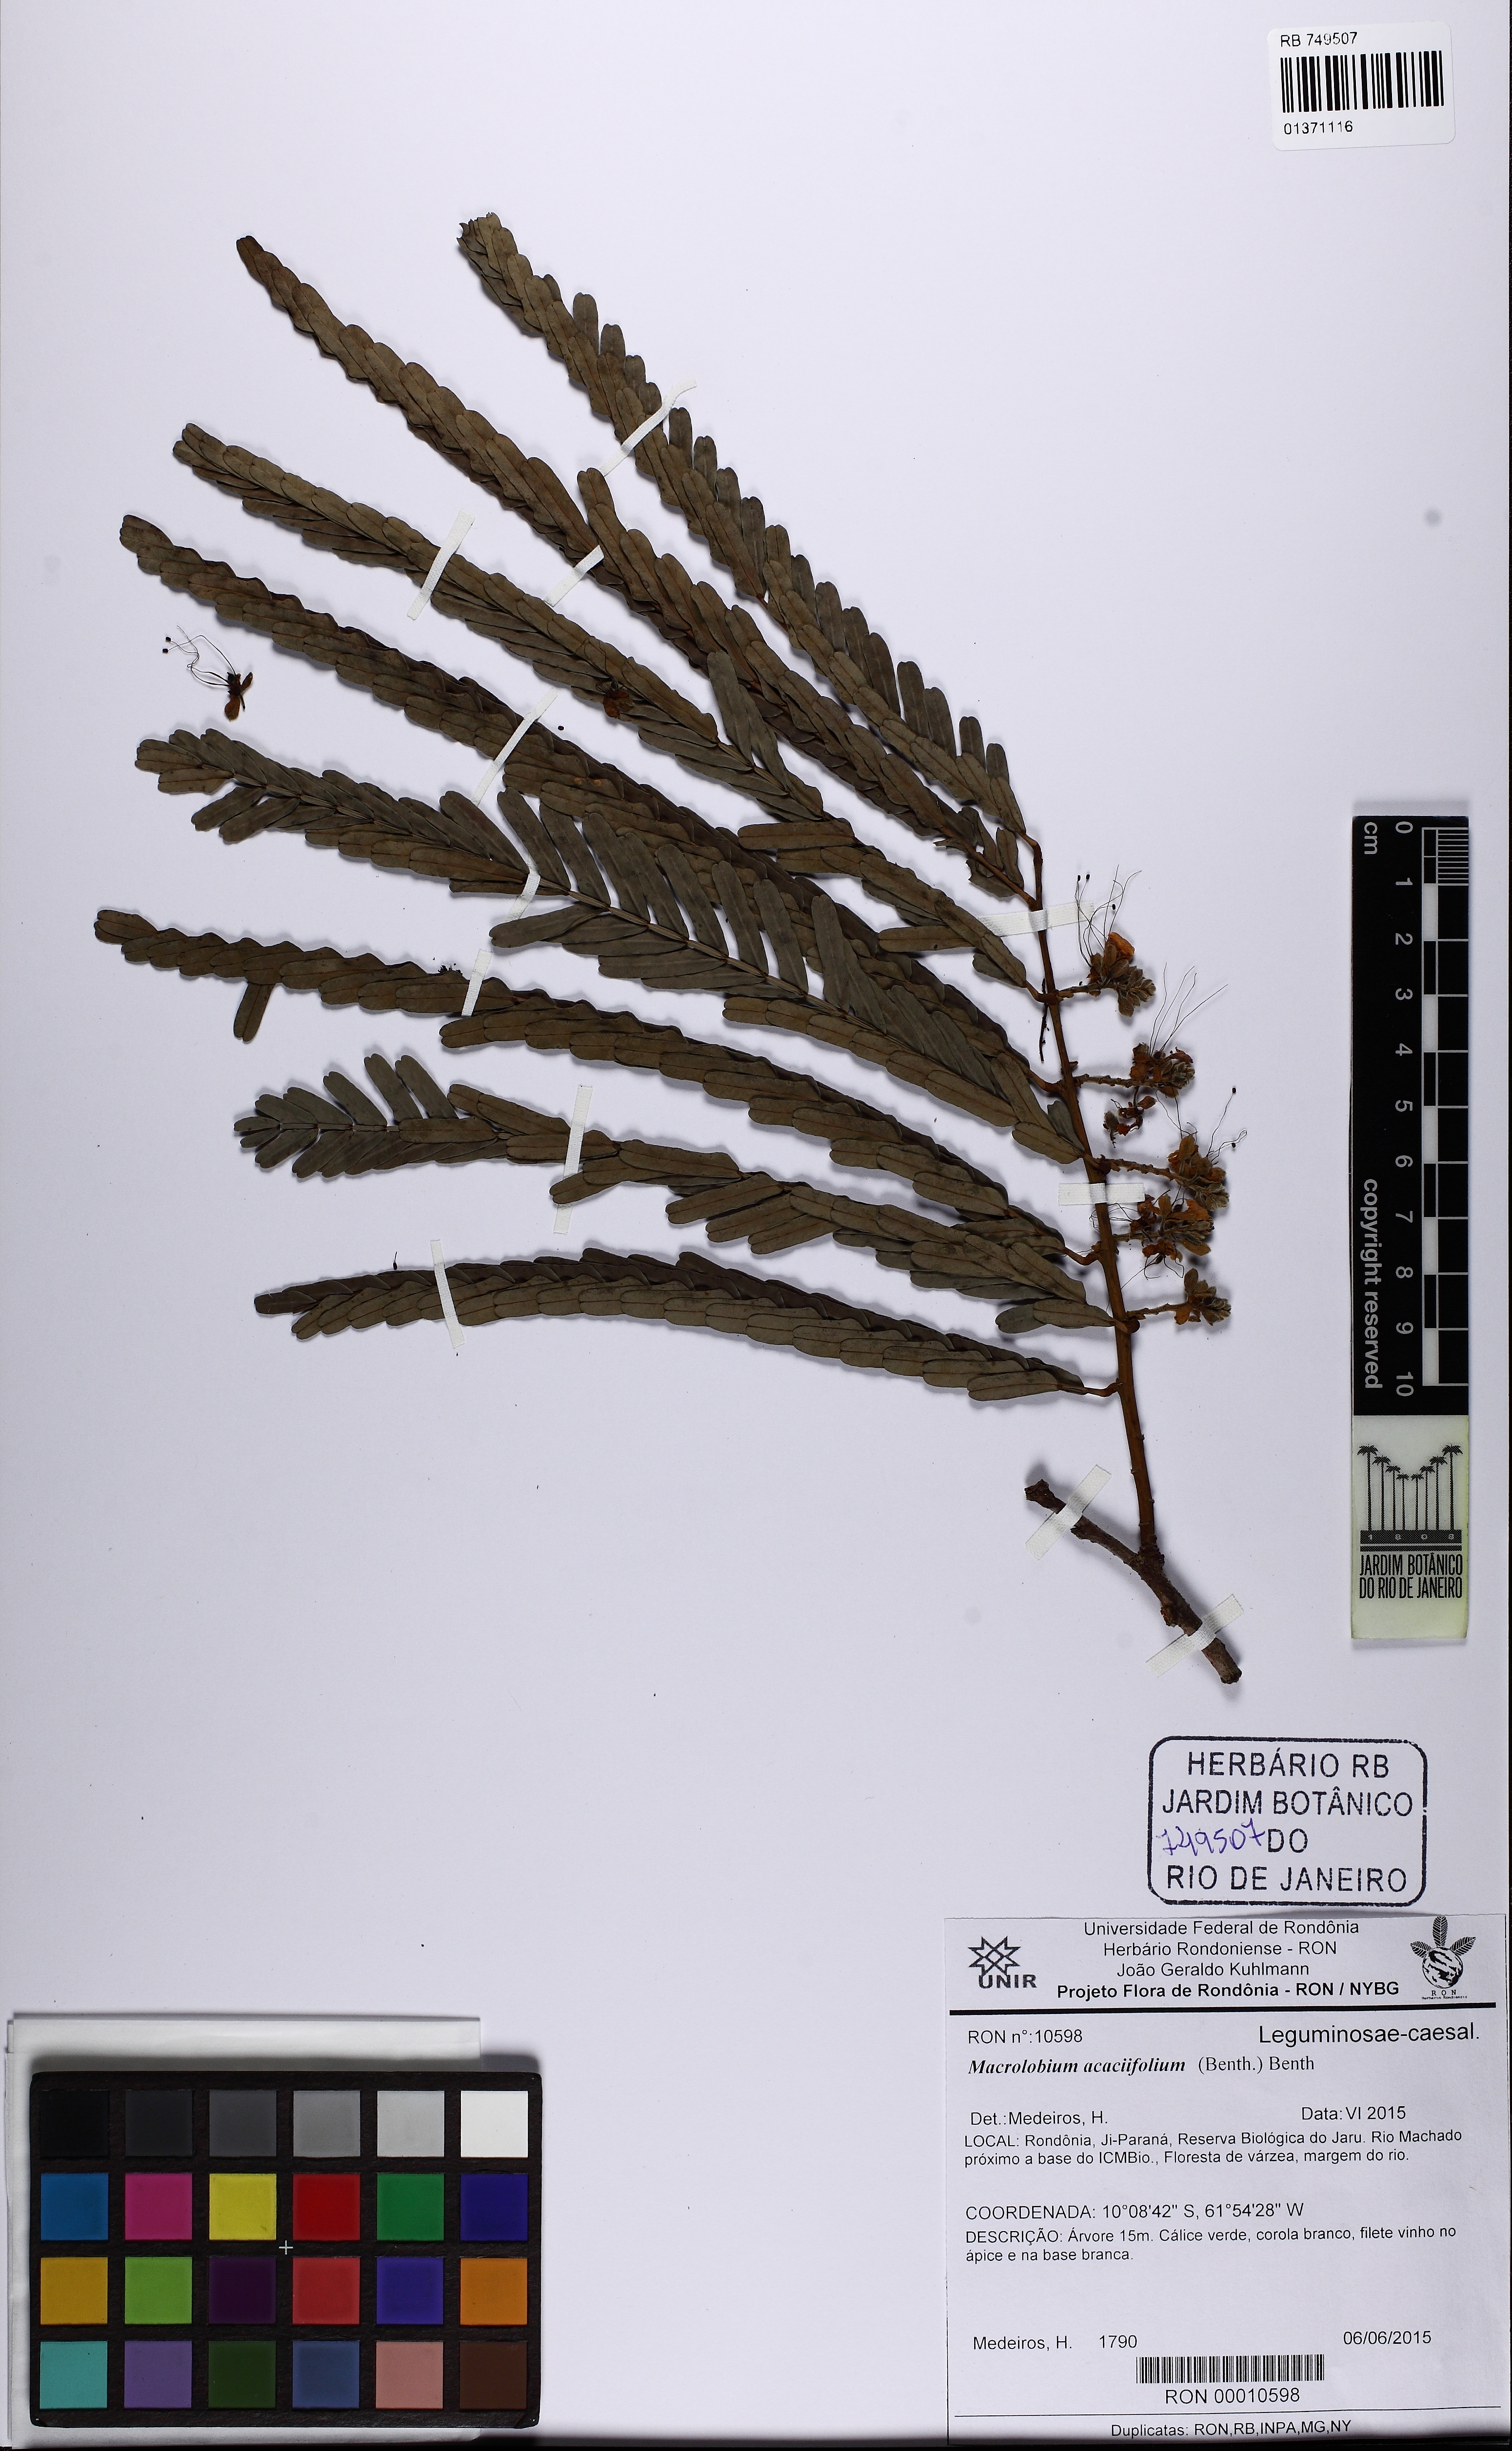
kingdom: Plantae
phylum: Tracheophyta
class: Magnoliopsida
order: Fabales
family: Fabaceae
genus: Macrolobium
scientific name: Macrolobium acaciifolium
